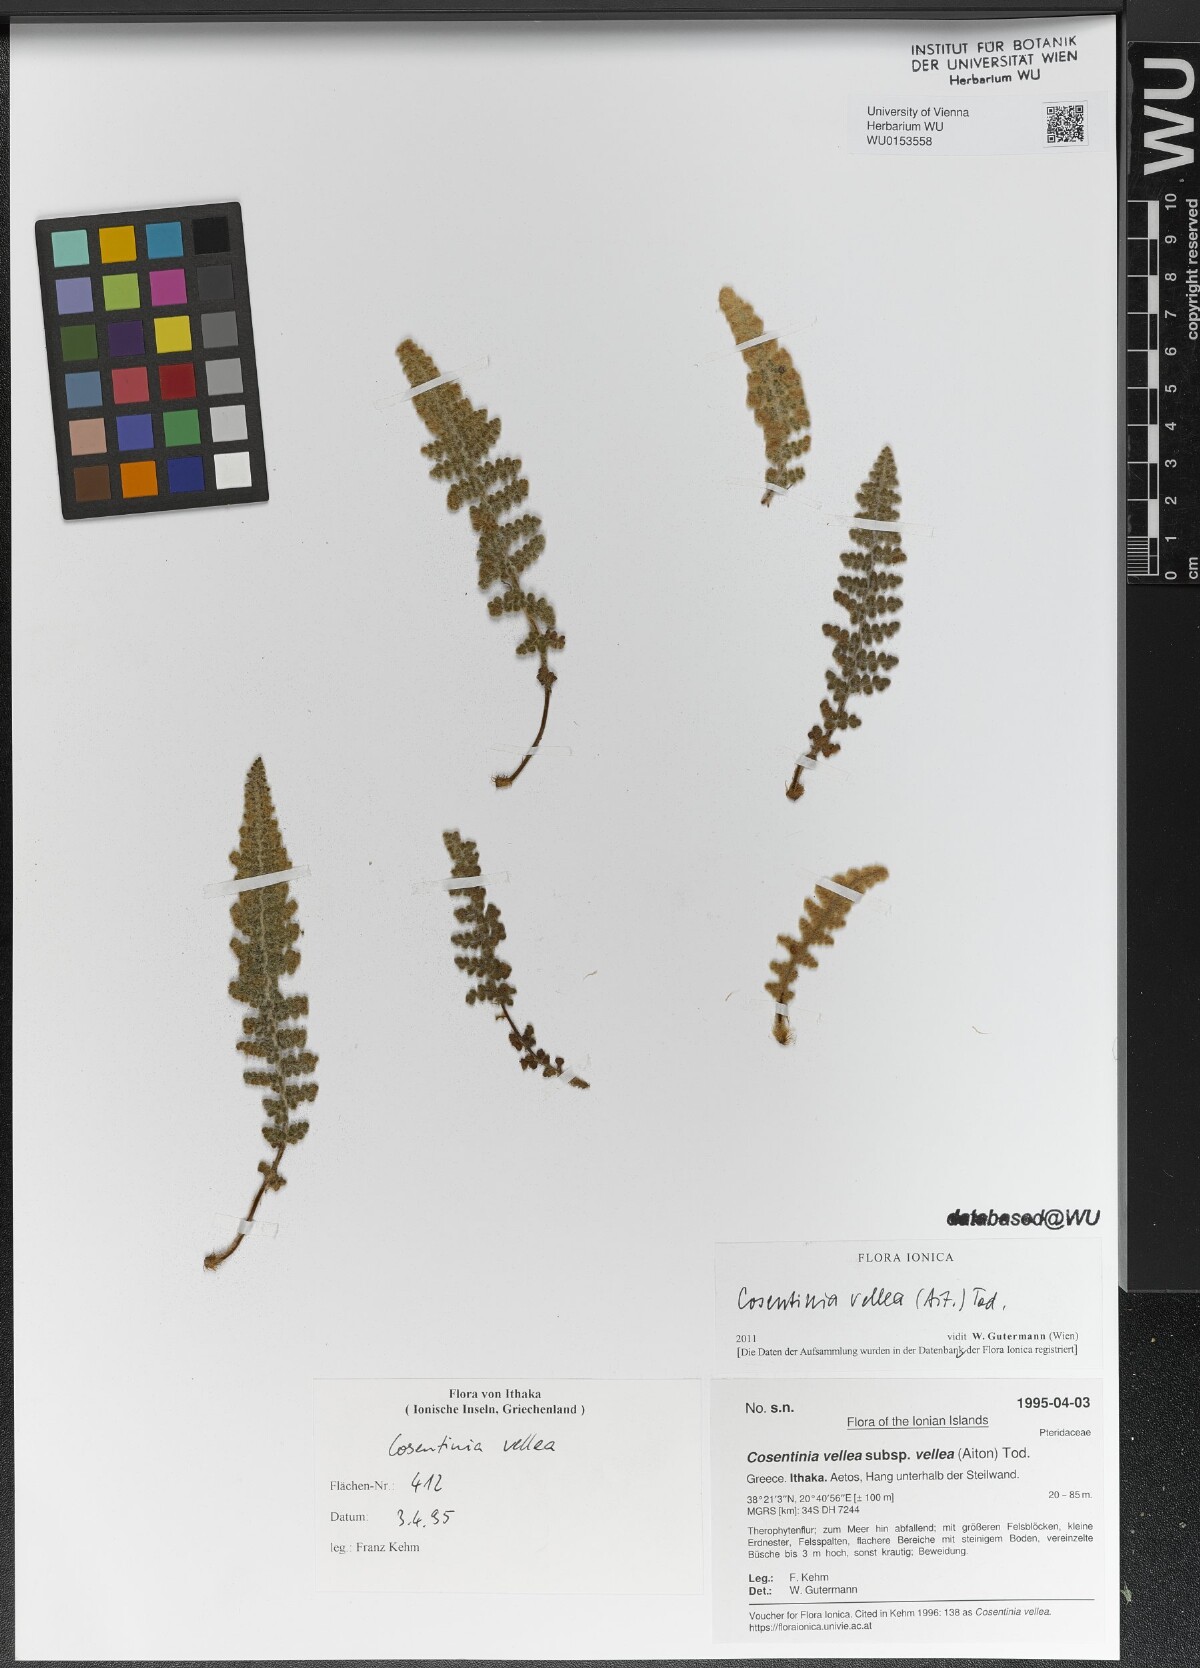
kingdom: Plantae
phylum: Tracheophyta
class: Polypodiopsida
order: Polypodiales
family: Pteridaceae
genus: Cosentinia
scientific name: Cosentinia vellea
